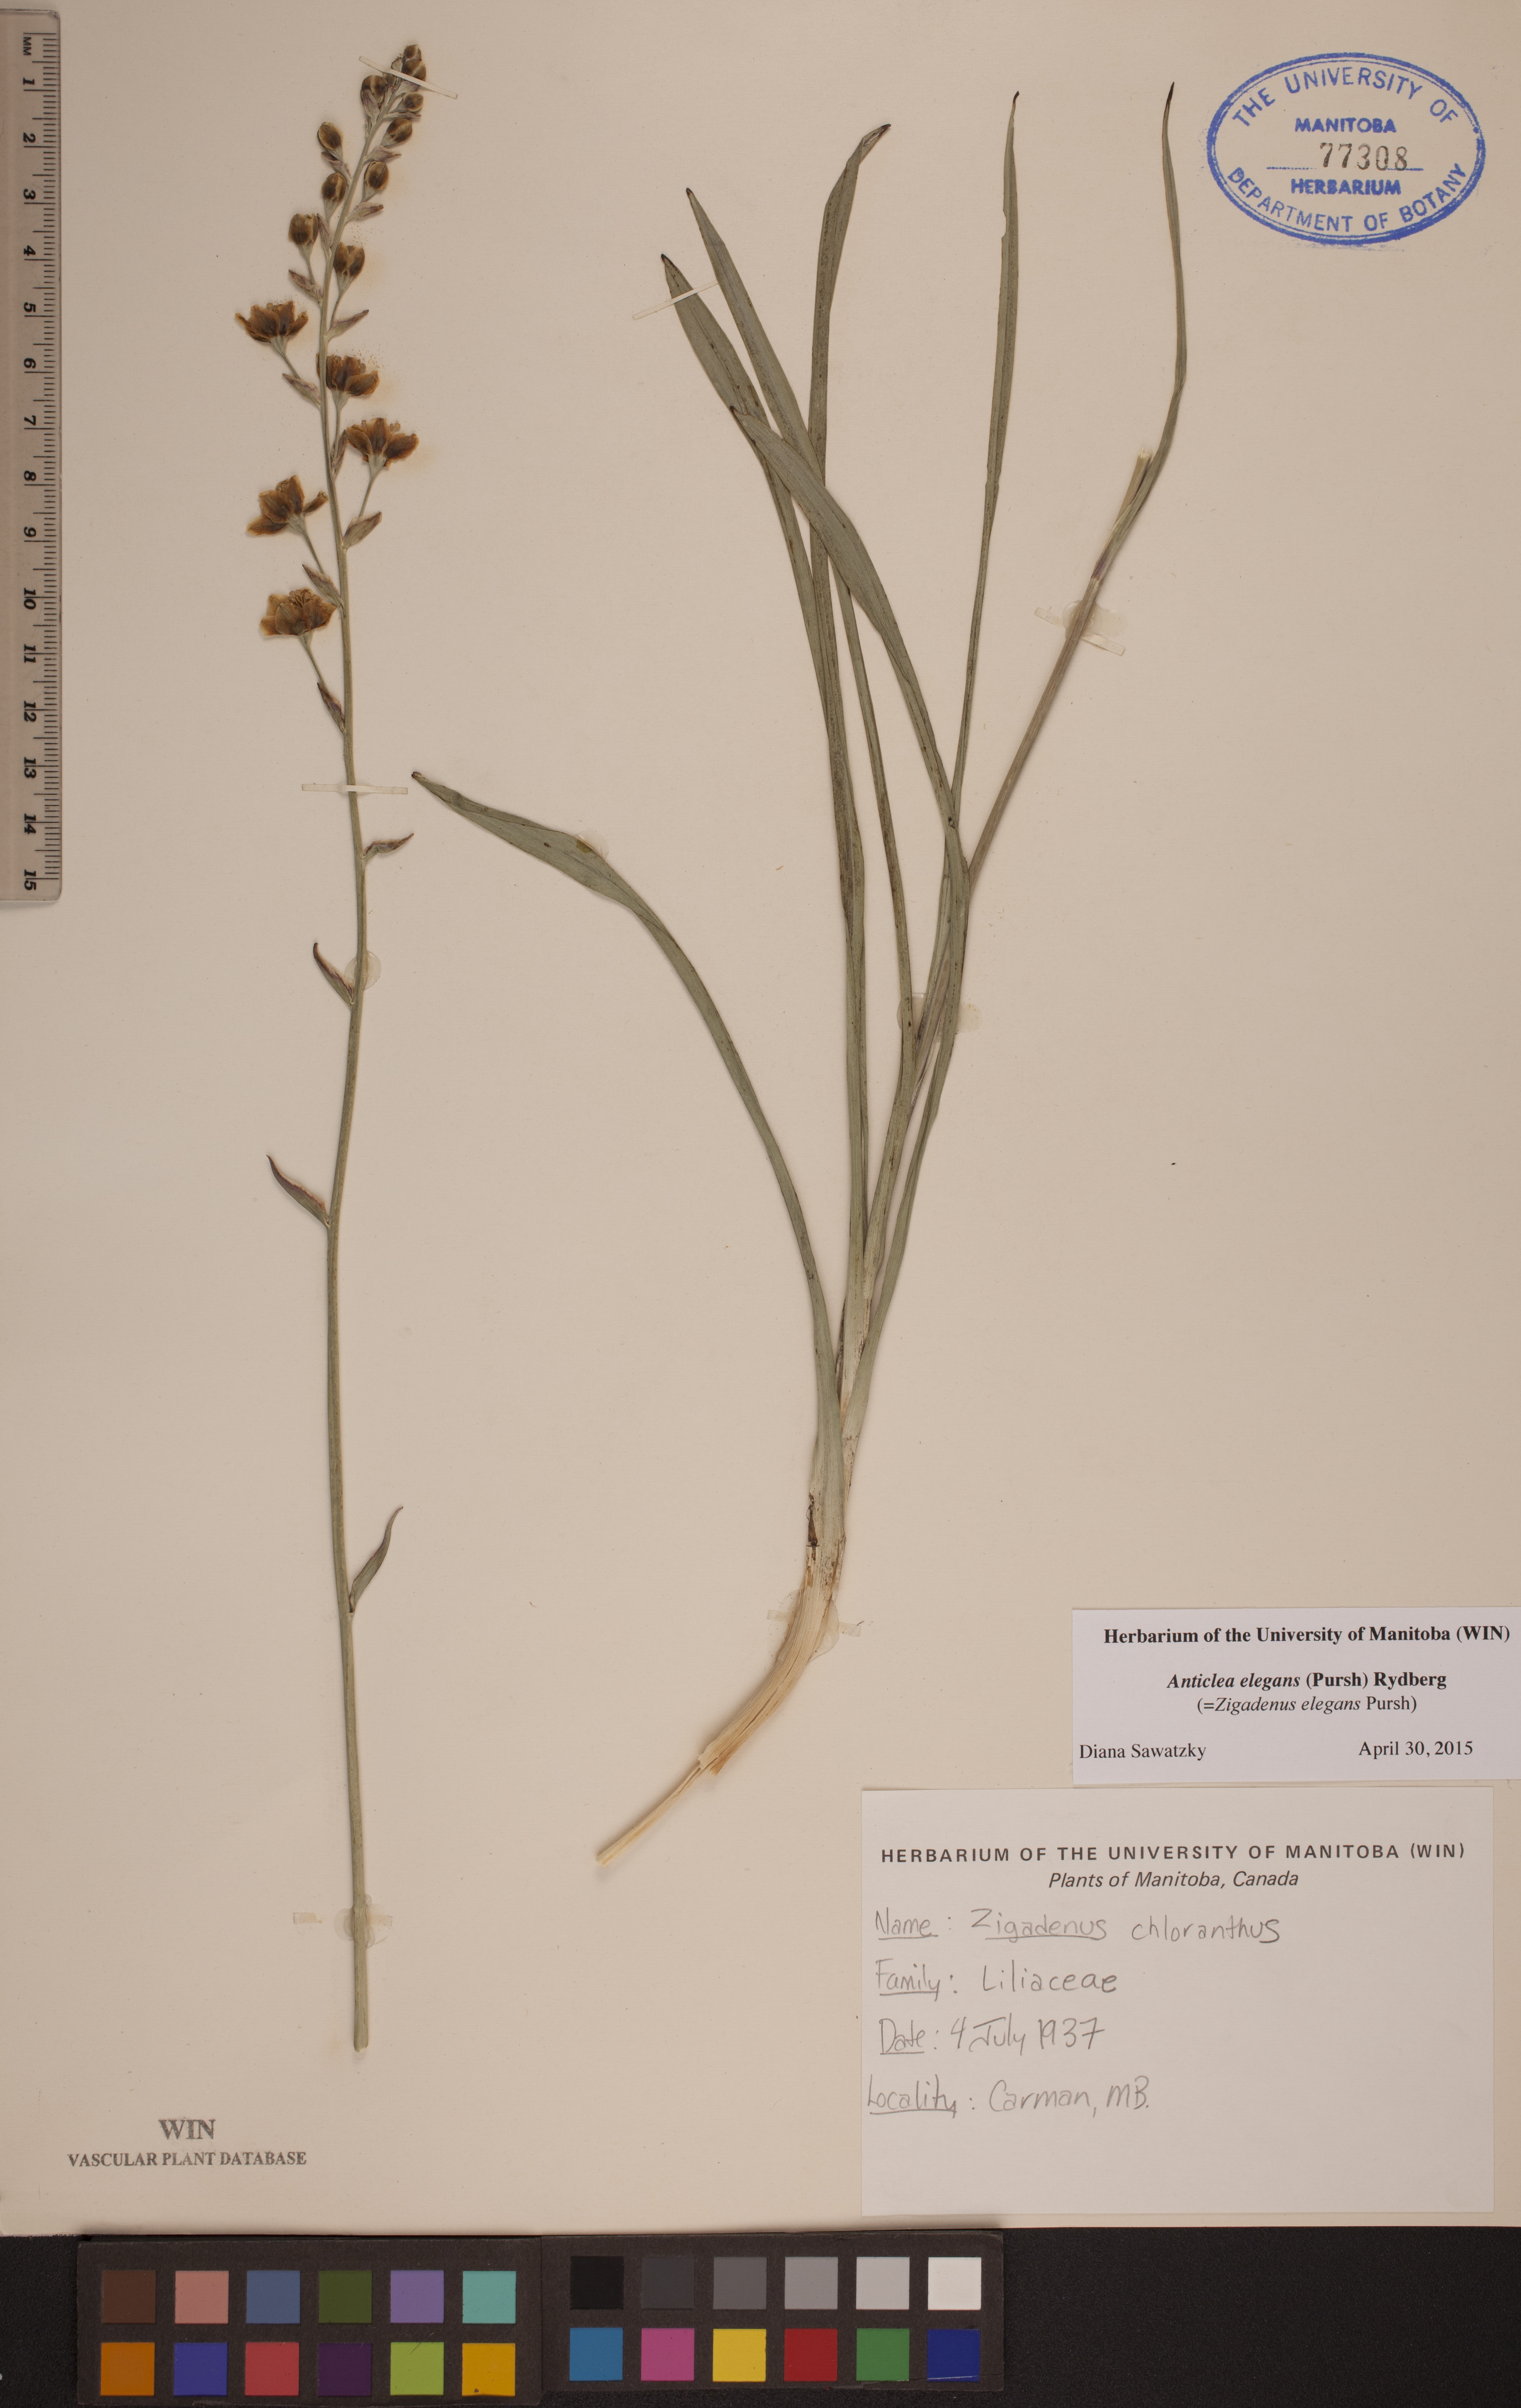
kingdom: Plantae
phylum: Tracheophyta
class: Liliopsida
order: Liliales
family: Melanthiaceae
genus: Anticlea
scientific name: Anticlea elegans
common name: Mountain death camas
